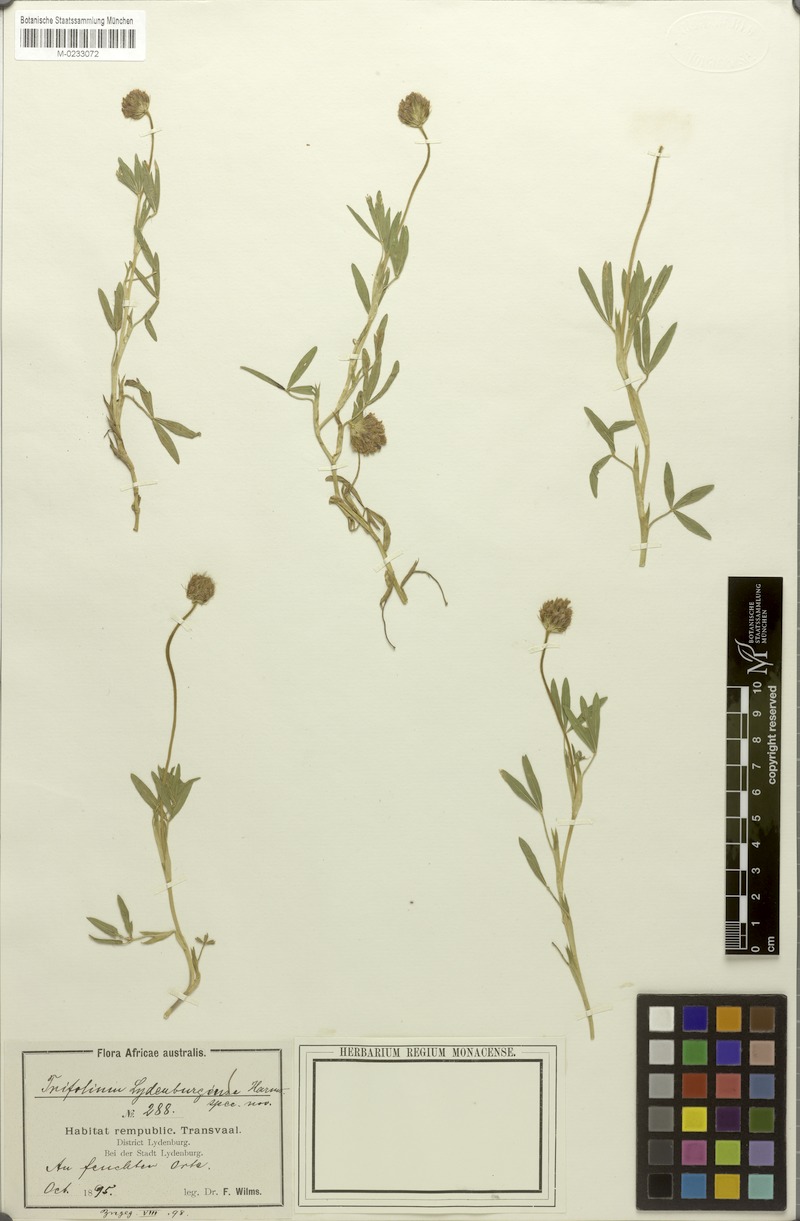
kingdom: Plantae
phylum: Tracheophyta
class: Magnoliopsida
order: Fabales
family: Fabaceae
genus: Trifolium
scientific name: Trifolium africanum
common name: Erasmus clover
